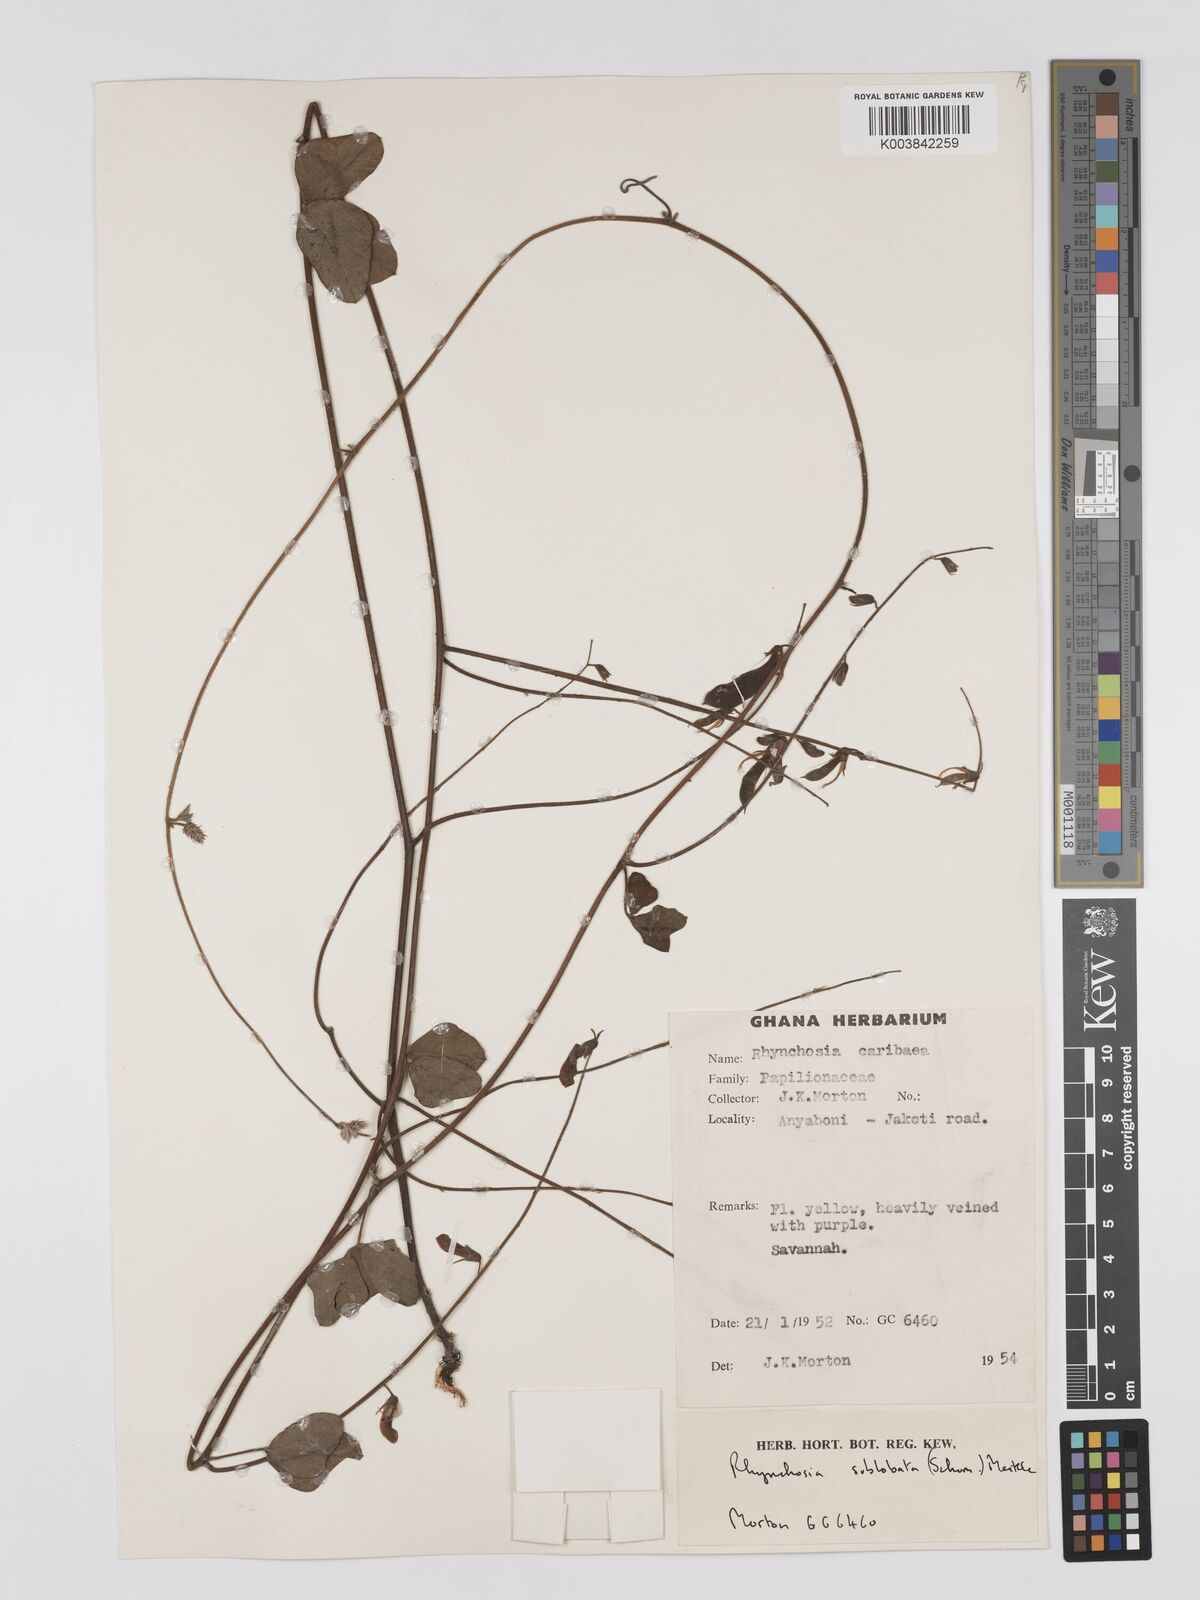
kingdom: Plantae
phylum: Tracheophyta
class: Magnoliopsida
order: Fabales
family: Fabaceae
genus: Rhynchosia
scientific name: Rhynchosia sublobata
